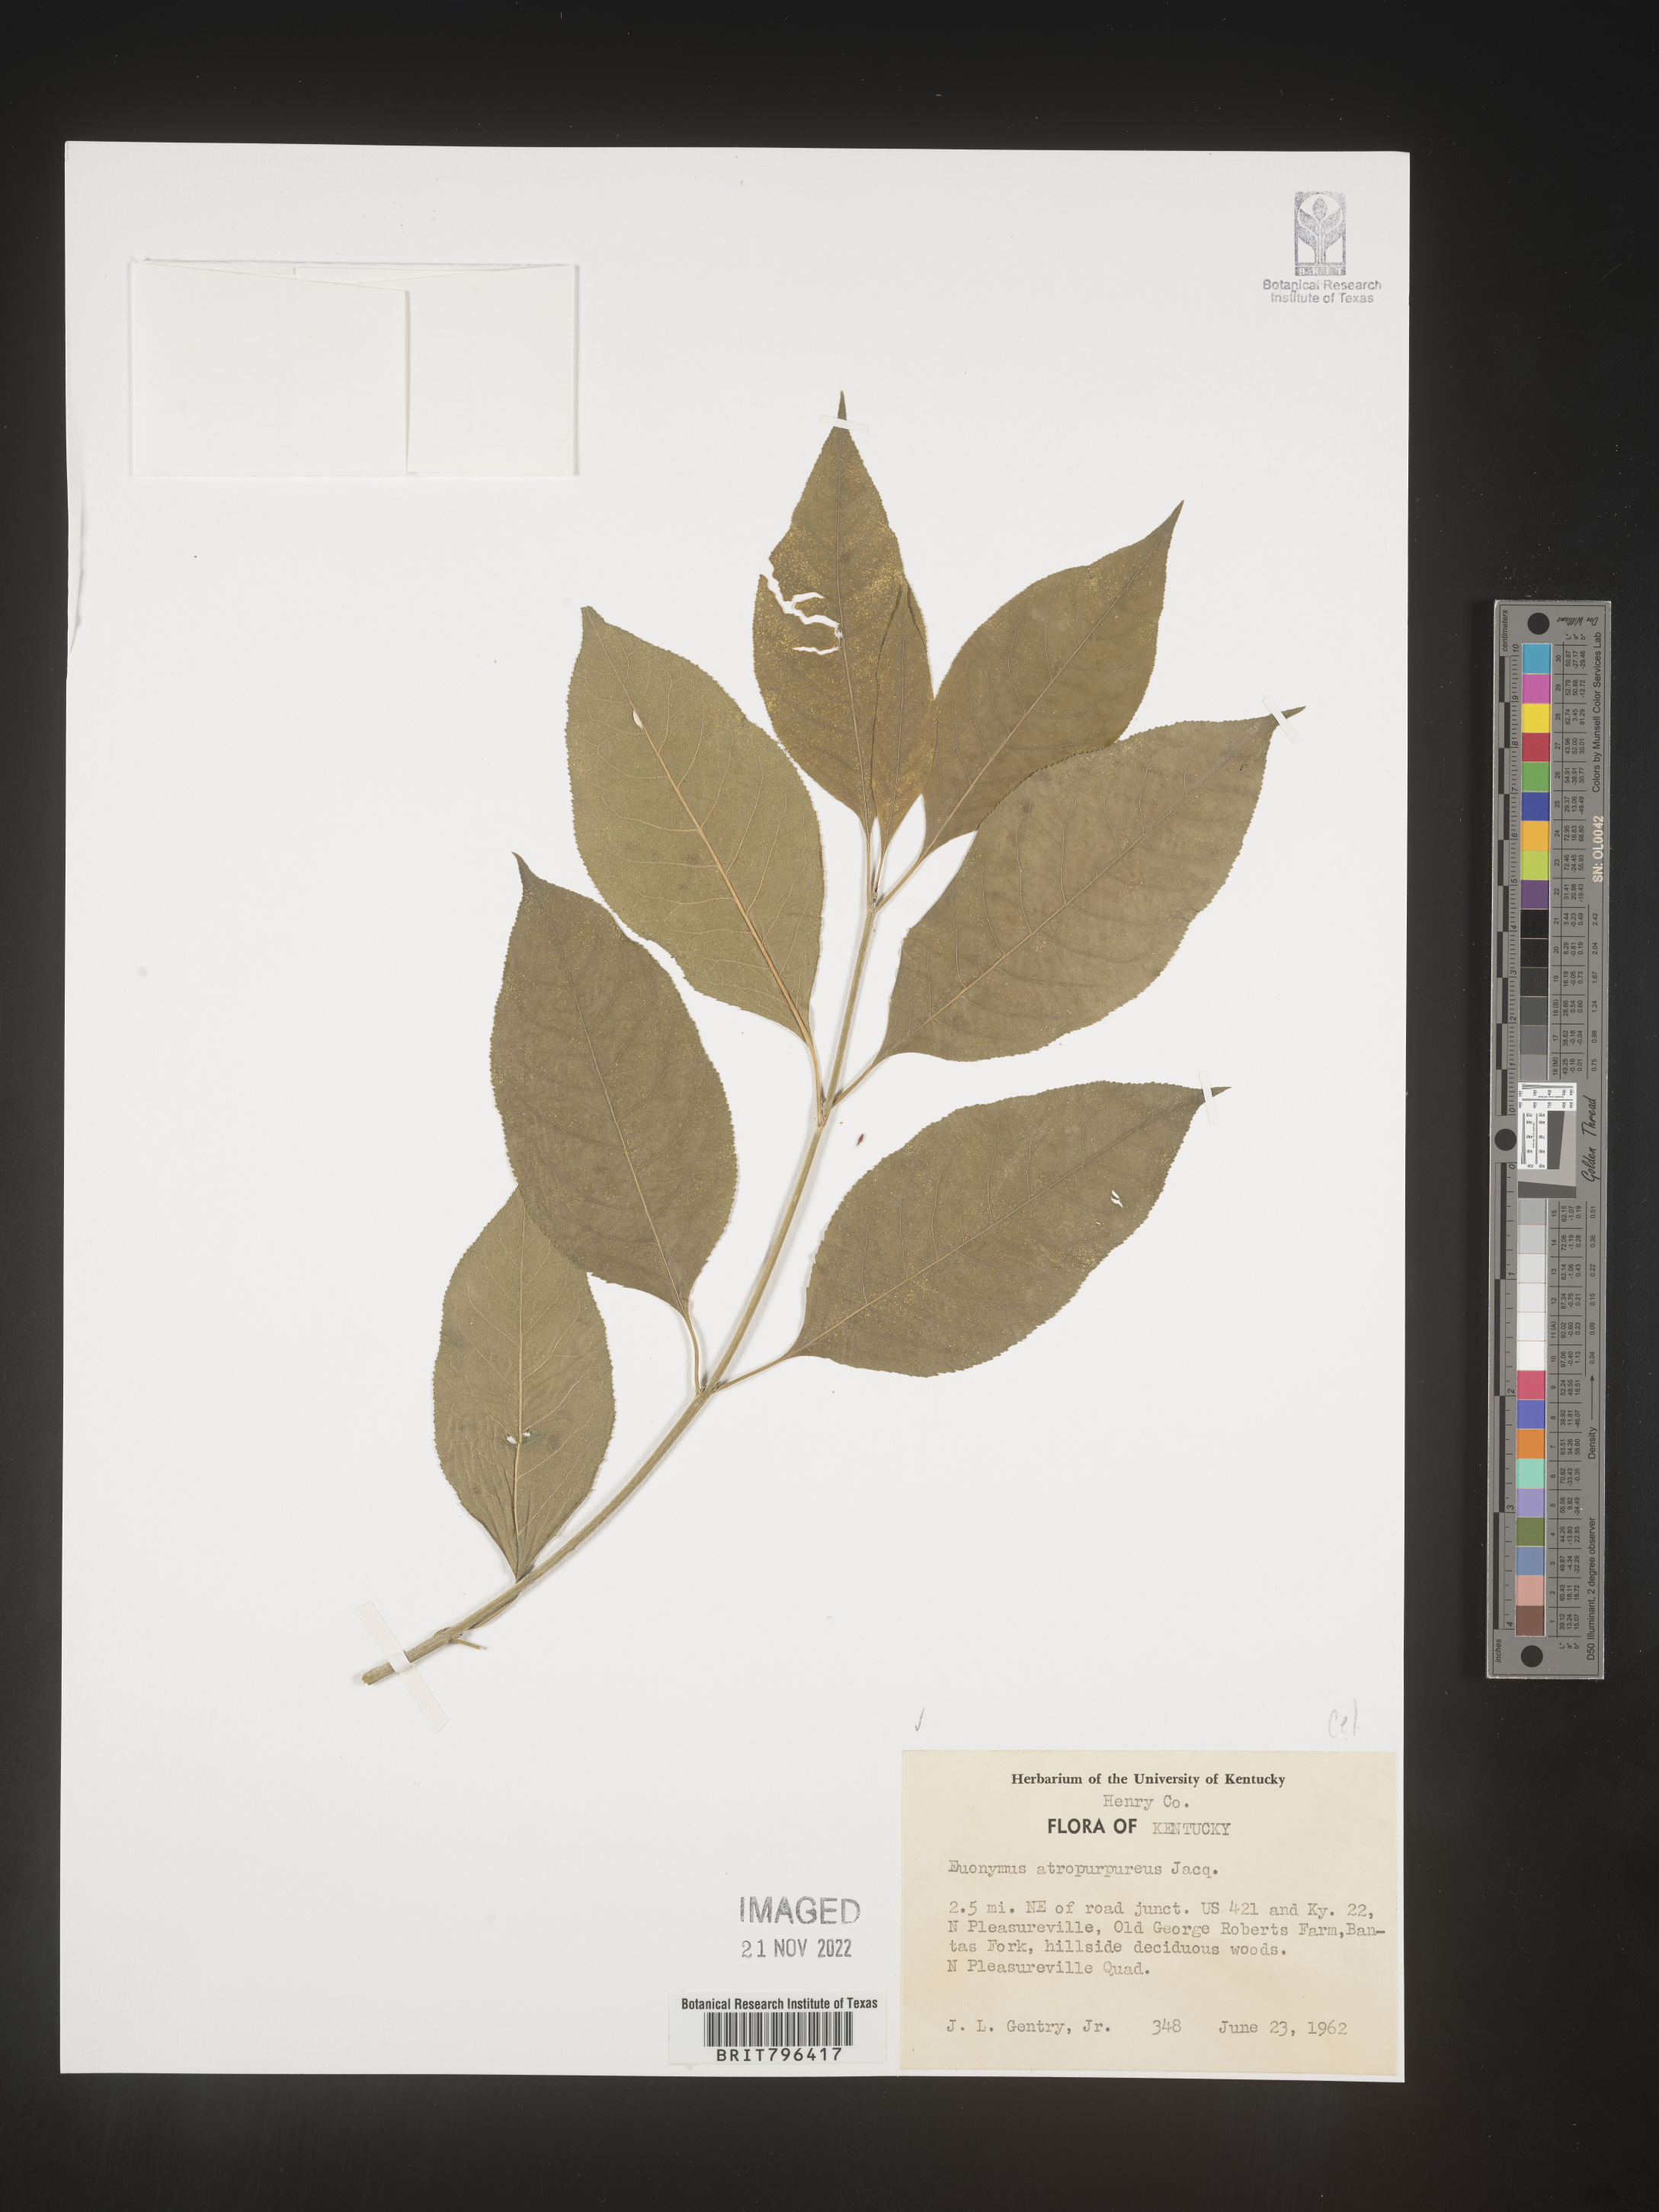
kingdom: Plantae
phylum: Tracheophyta
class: Magnoliopsida
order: Celastrales
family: Celastraceae
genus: Euonymus
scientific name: Euonymus atropurpureus
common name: Eastern wahoo
